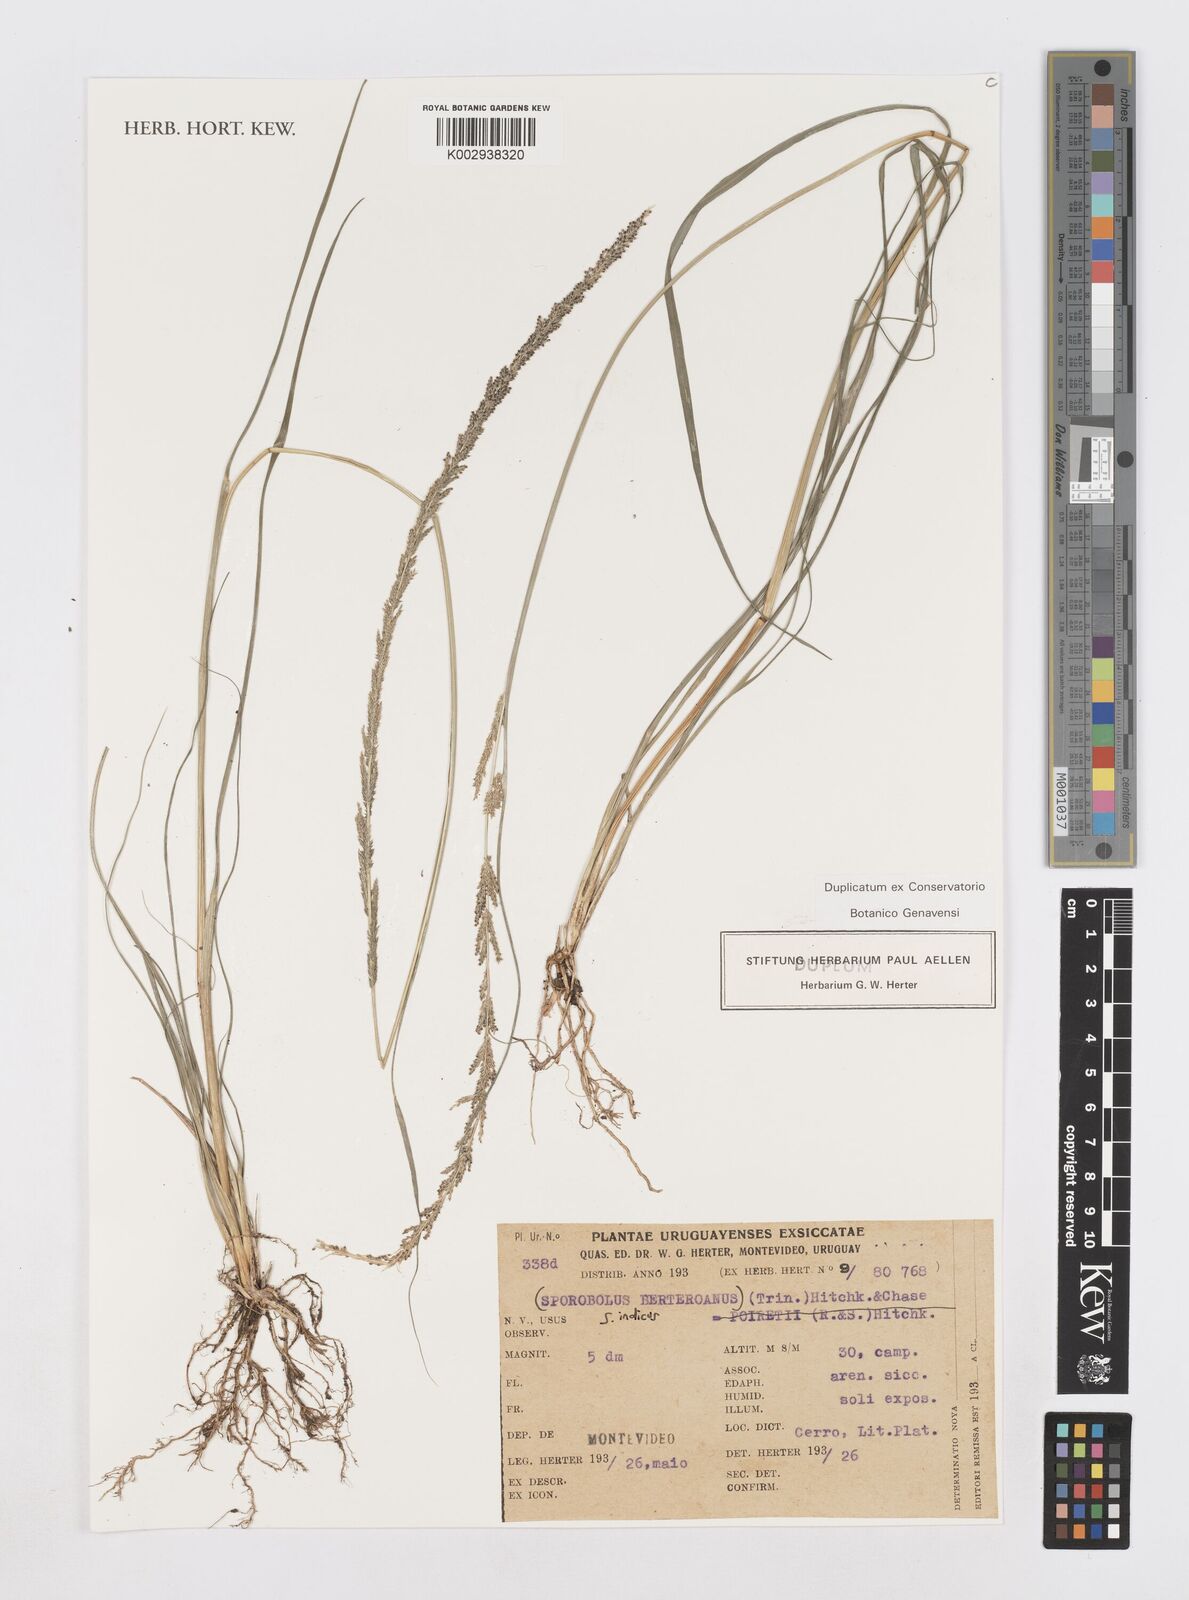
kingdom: Plantae
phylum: Tracheophyta
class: Liliopsida
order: Poales
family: Poaceae
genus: Sporobolus
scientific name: Sporobolus indicus
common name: Smut grass
